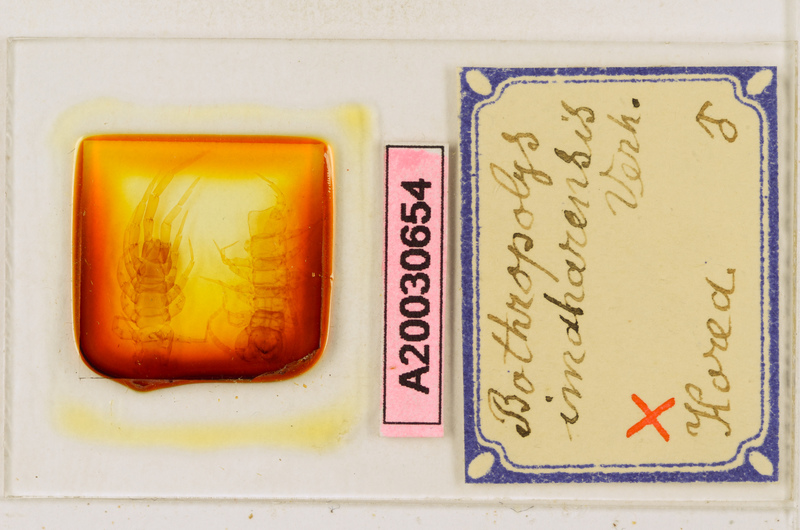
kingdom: Animalia
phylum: Arthropoda
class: Chilopoda
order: Lithobiomorpha
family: Lithobiidae
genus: Bothropolys
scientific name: Bothropolys imaharensis
